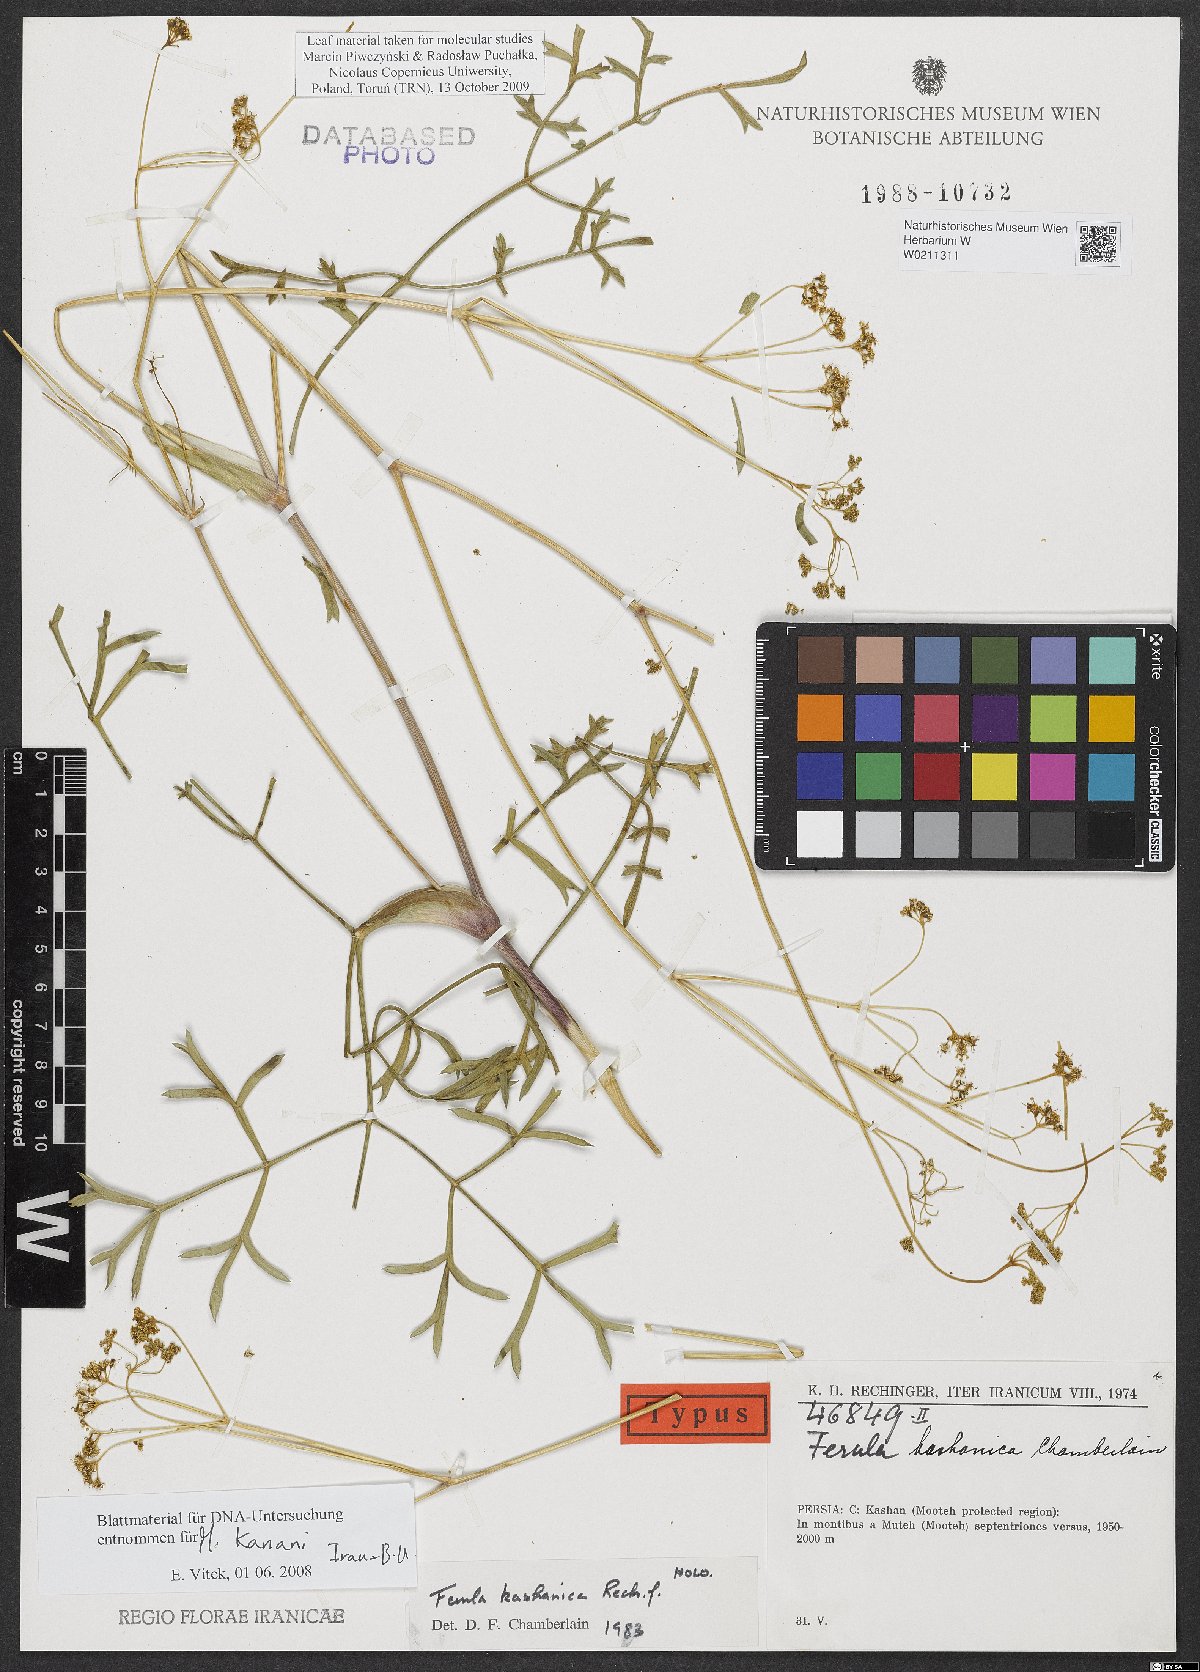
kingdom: Plantae
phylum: Tracheophyta
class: Magnoliopsida
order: Apiales
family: Apiaceae
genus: Ferula
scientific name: Ferula kashanica
